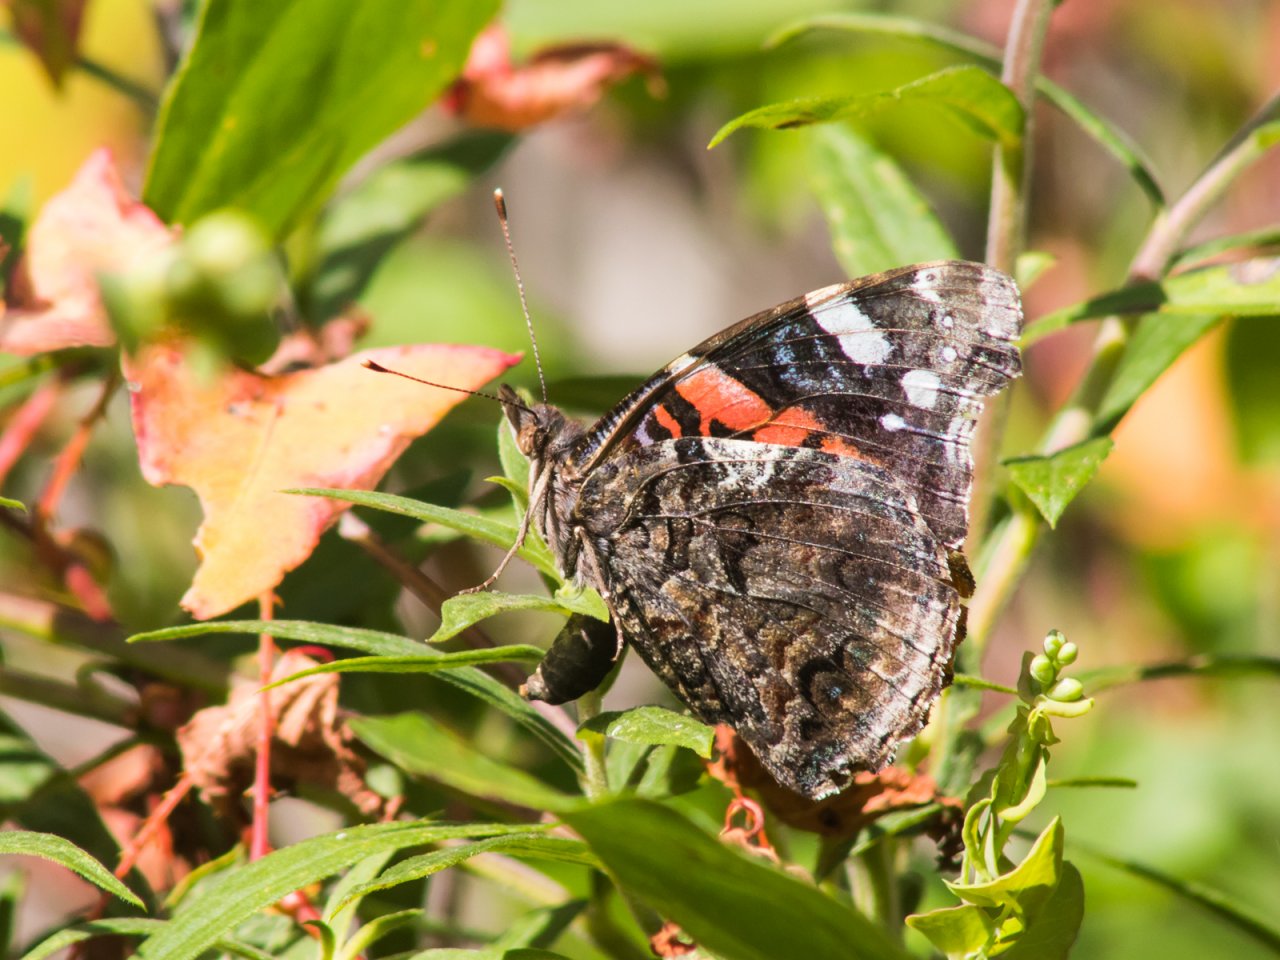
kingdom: Animalia
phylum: Arthropoda
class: Insecta
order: Lepidoptera
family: Nymphalidae
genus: Vanessa
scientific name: Vanessa atalanta
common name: Red Admiral
